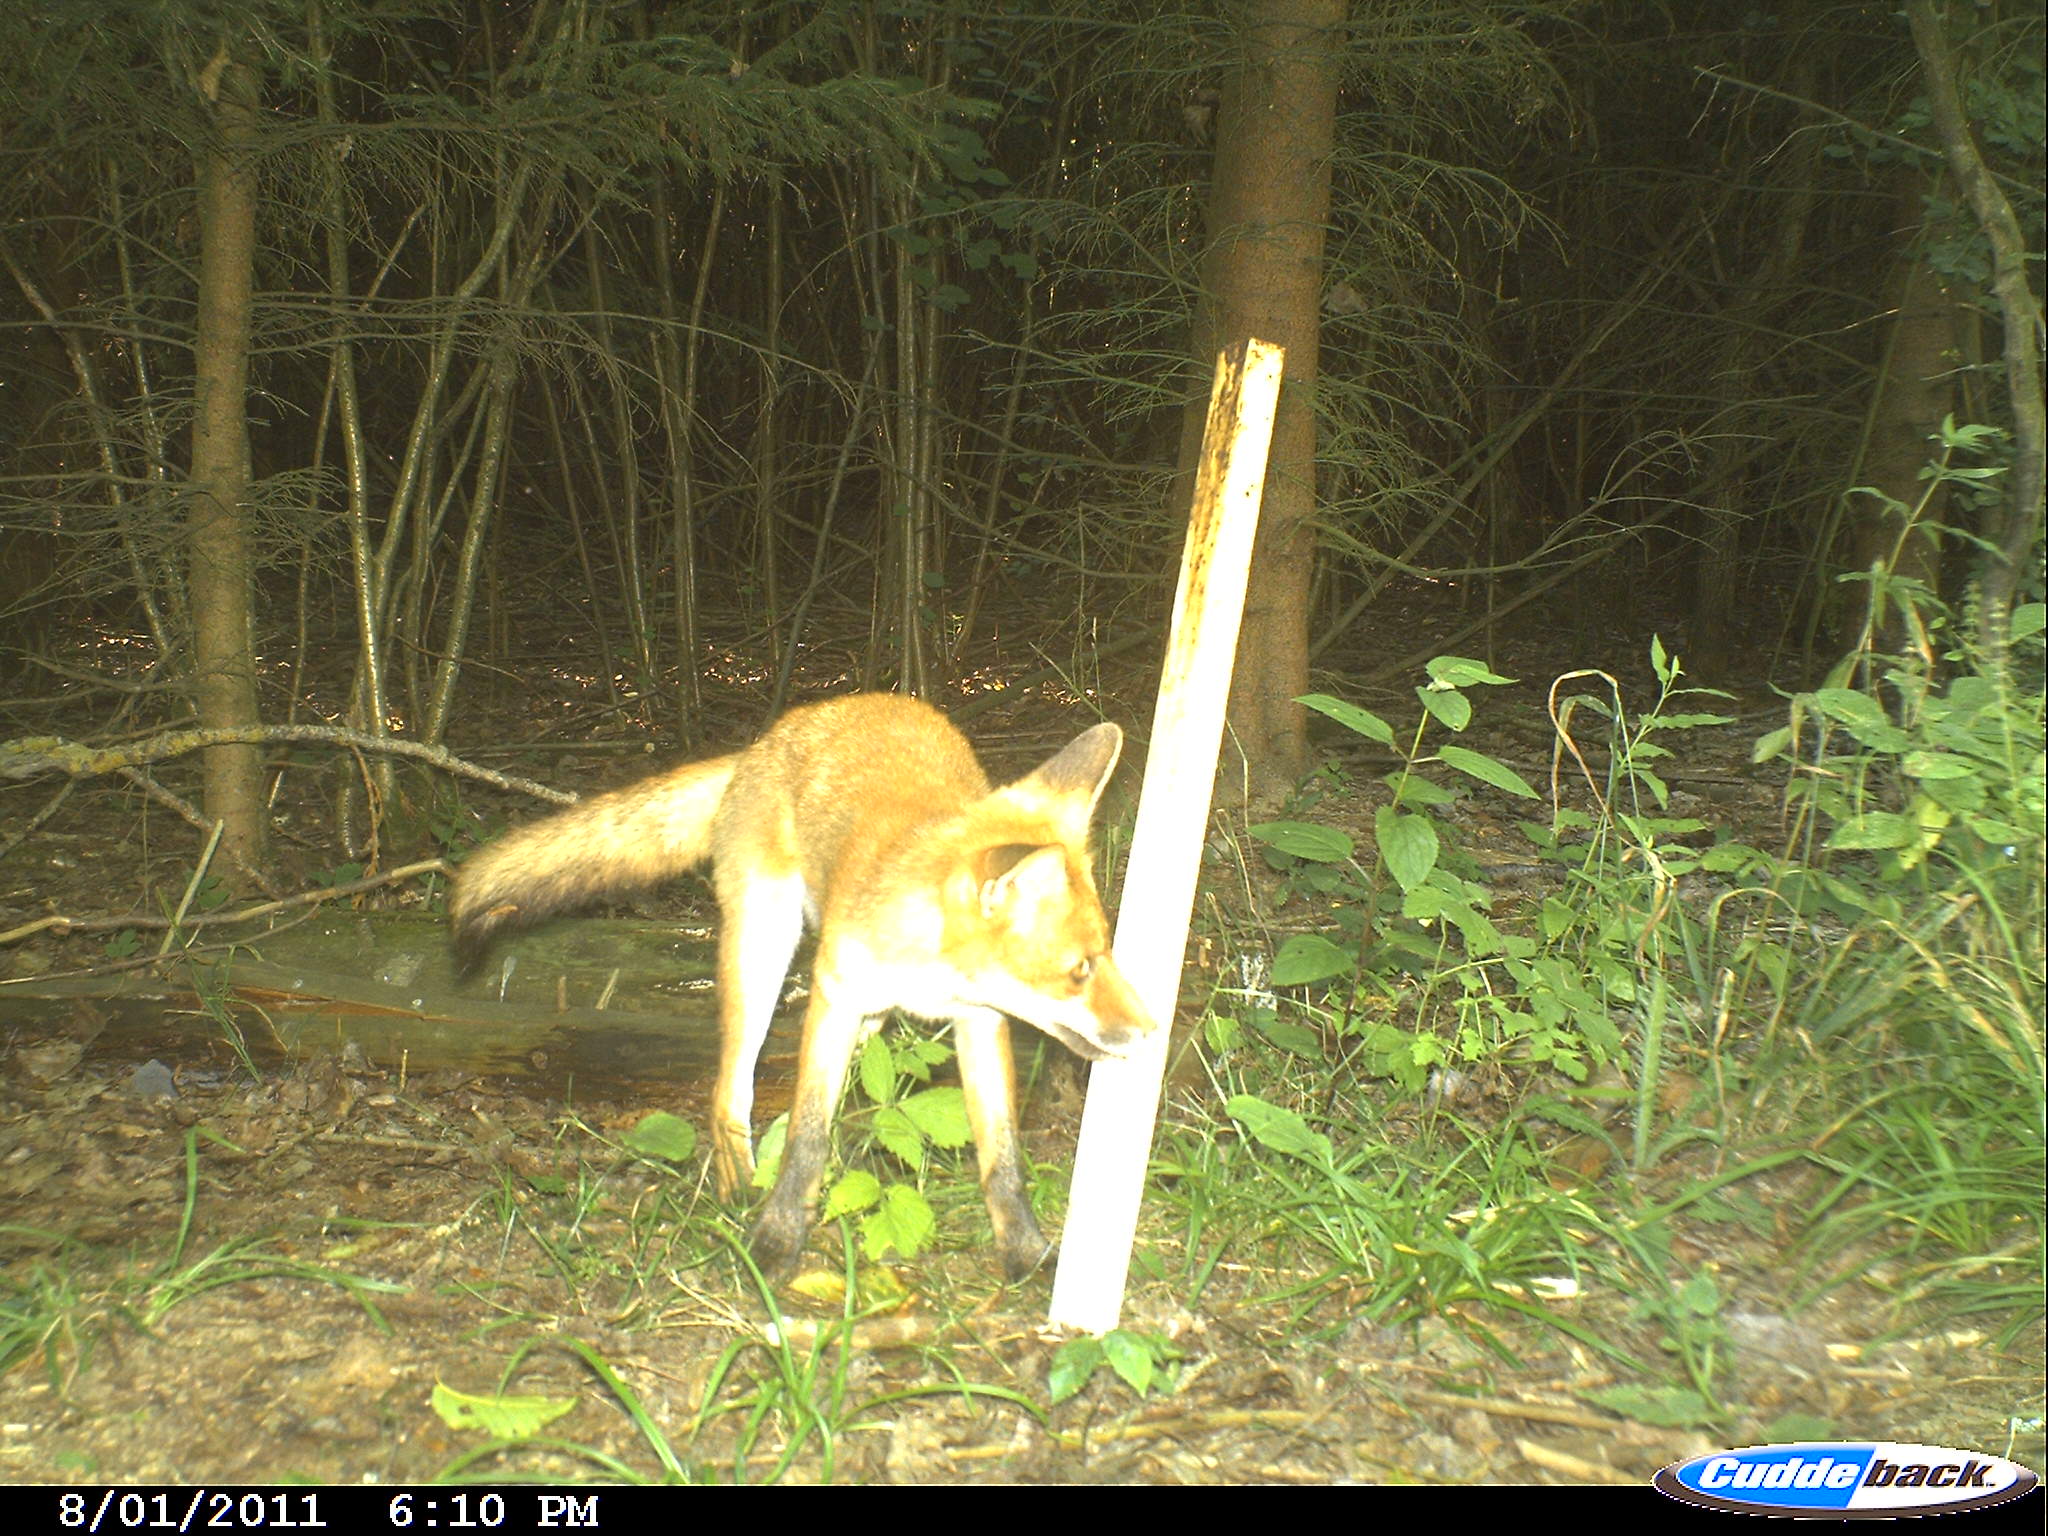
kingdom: Animalia
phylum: Chordata
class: Mammalia
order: Carnivora
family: Canidae
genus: Vulpes
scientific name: Vulpes vulpes
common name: Red fox
